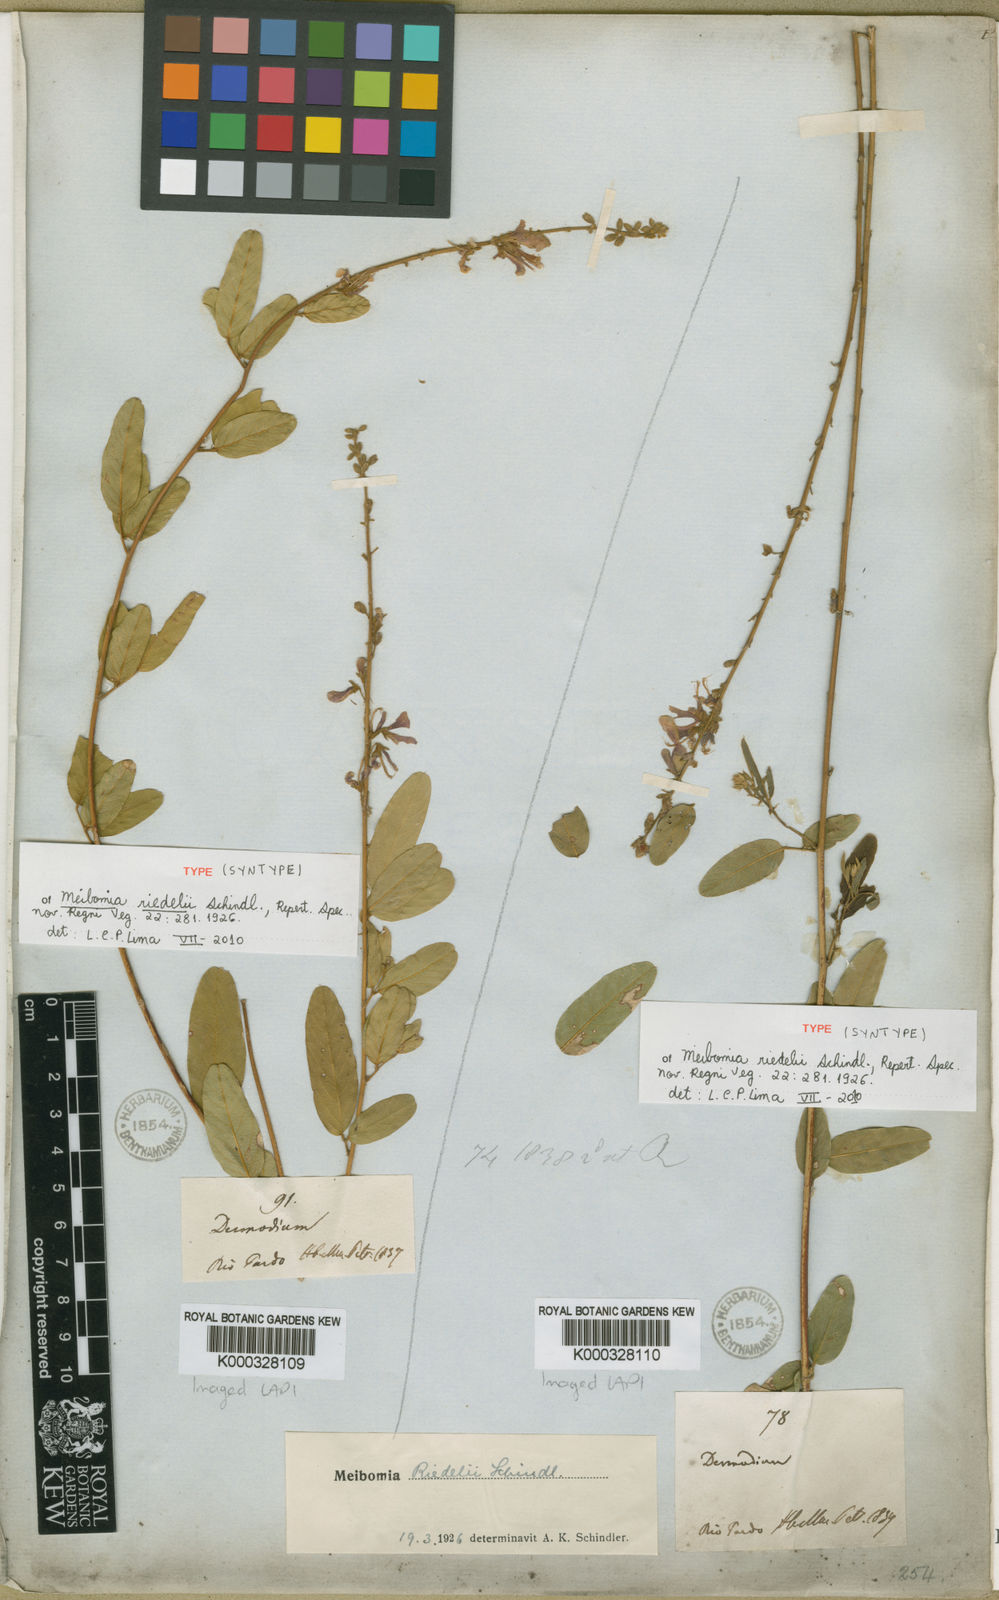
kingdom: Plantae
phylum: Tracheophyta
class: Magnoliopsida
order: Fabales
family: Fabaceae
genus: Desmodium
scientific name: Desmodium riedelii
